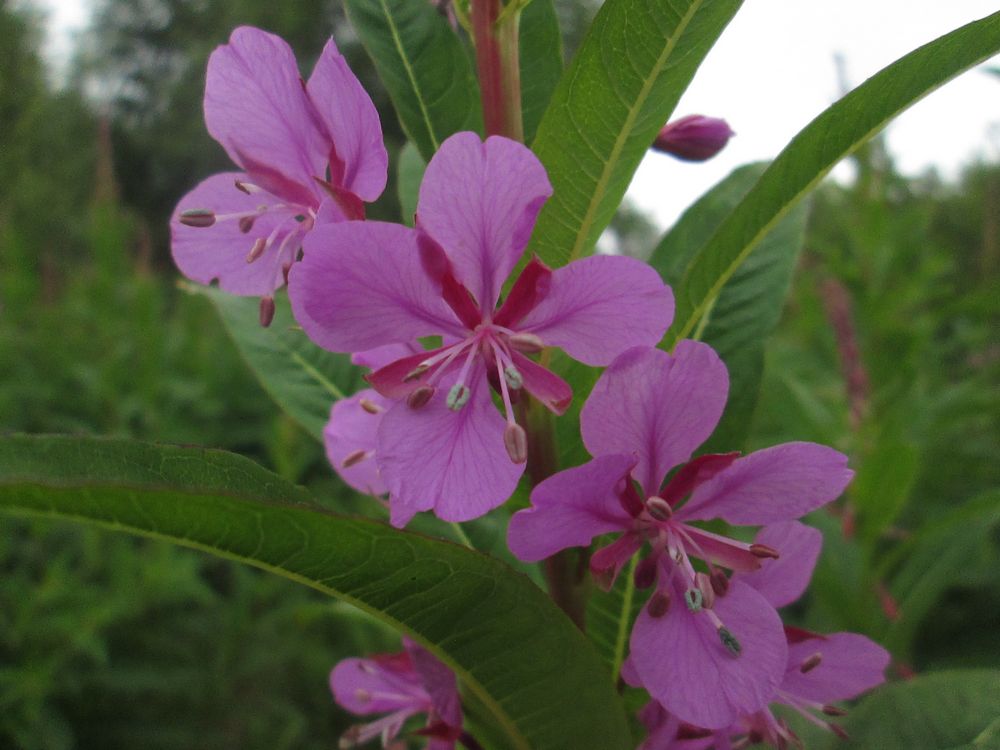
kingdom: Plantae
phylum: Tracheophyta
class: Magnoliopsida
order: Myrtales
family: Onagraceae
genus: Chamaenerion
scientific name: Chamaenerion angustifolium
